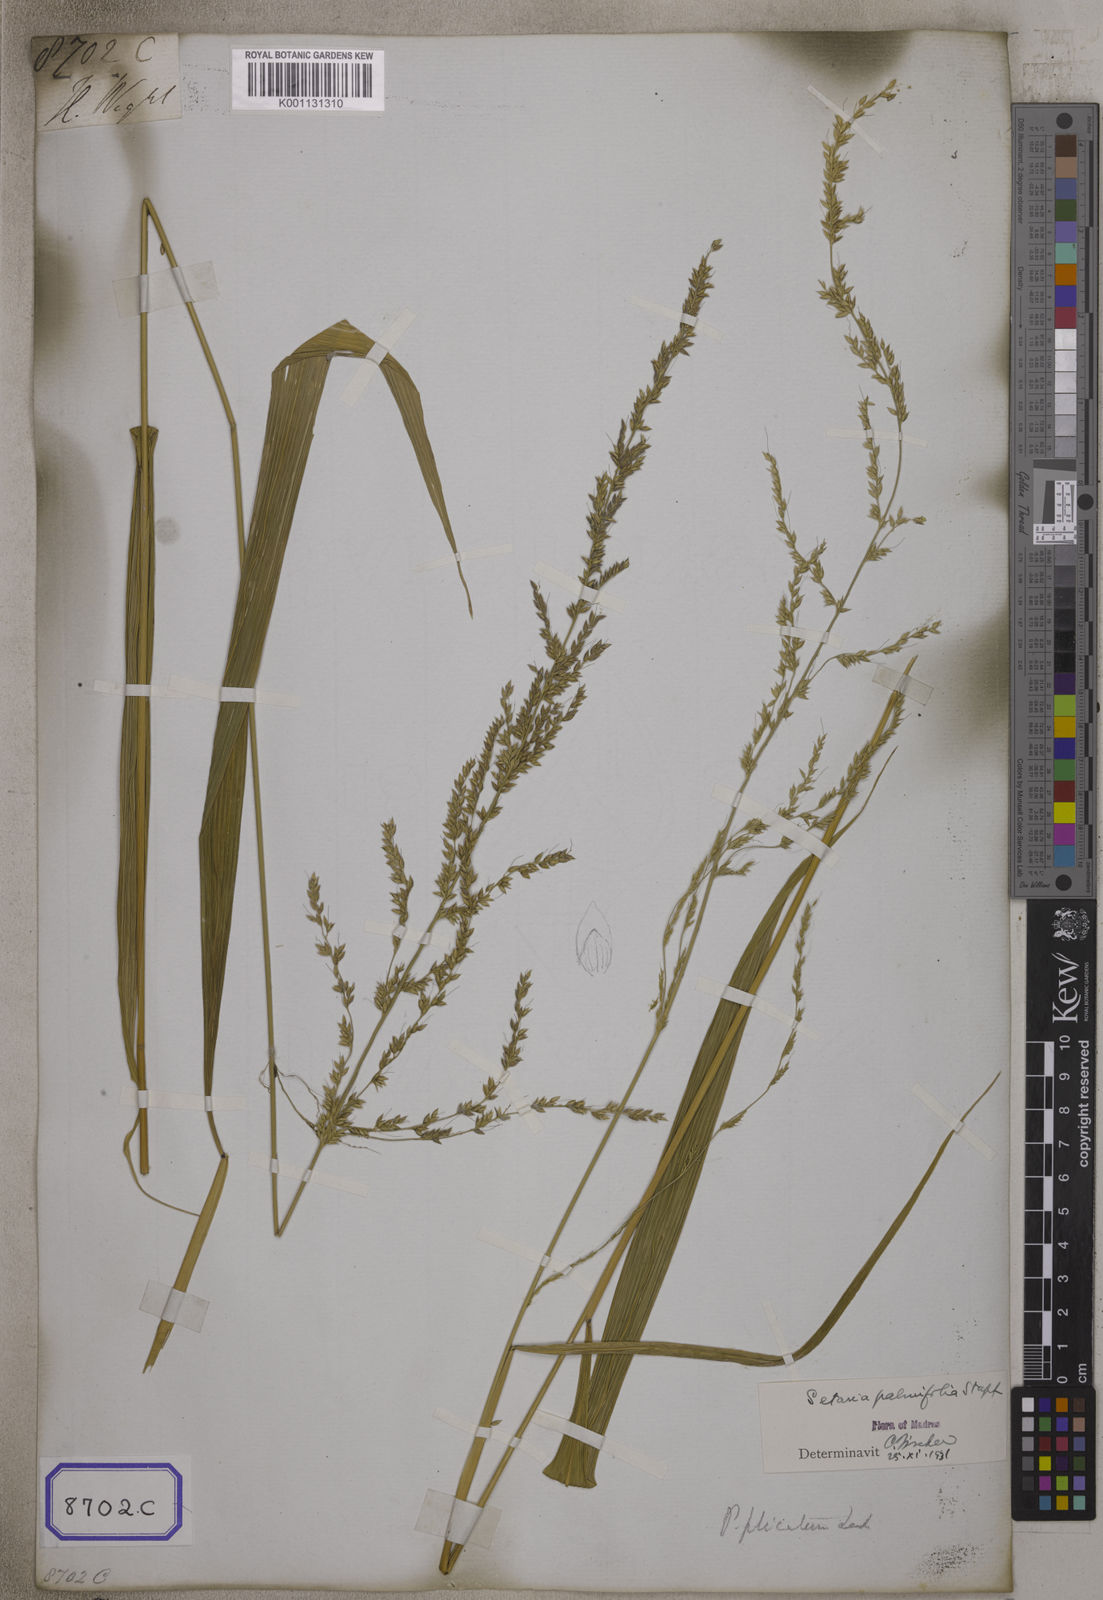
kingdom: Plantae
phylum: Tracheophyta
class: Liliopsida
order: Poales
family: Poaceae
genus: Setaria
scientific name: Setaria palmifolia
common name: Broadleaved bristlegrass
